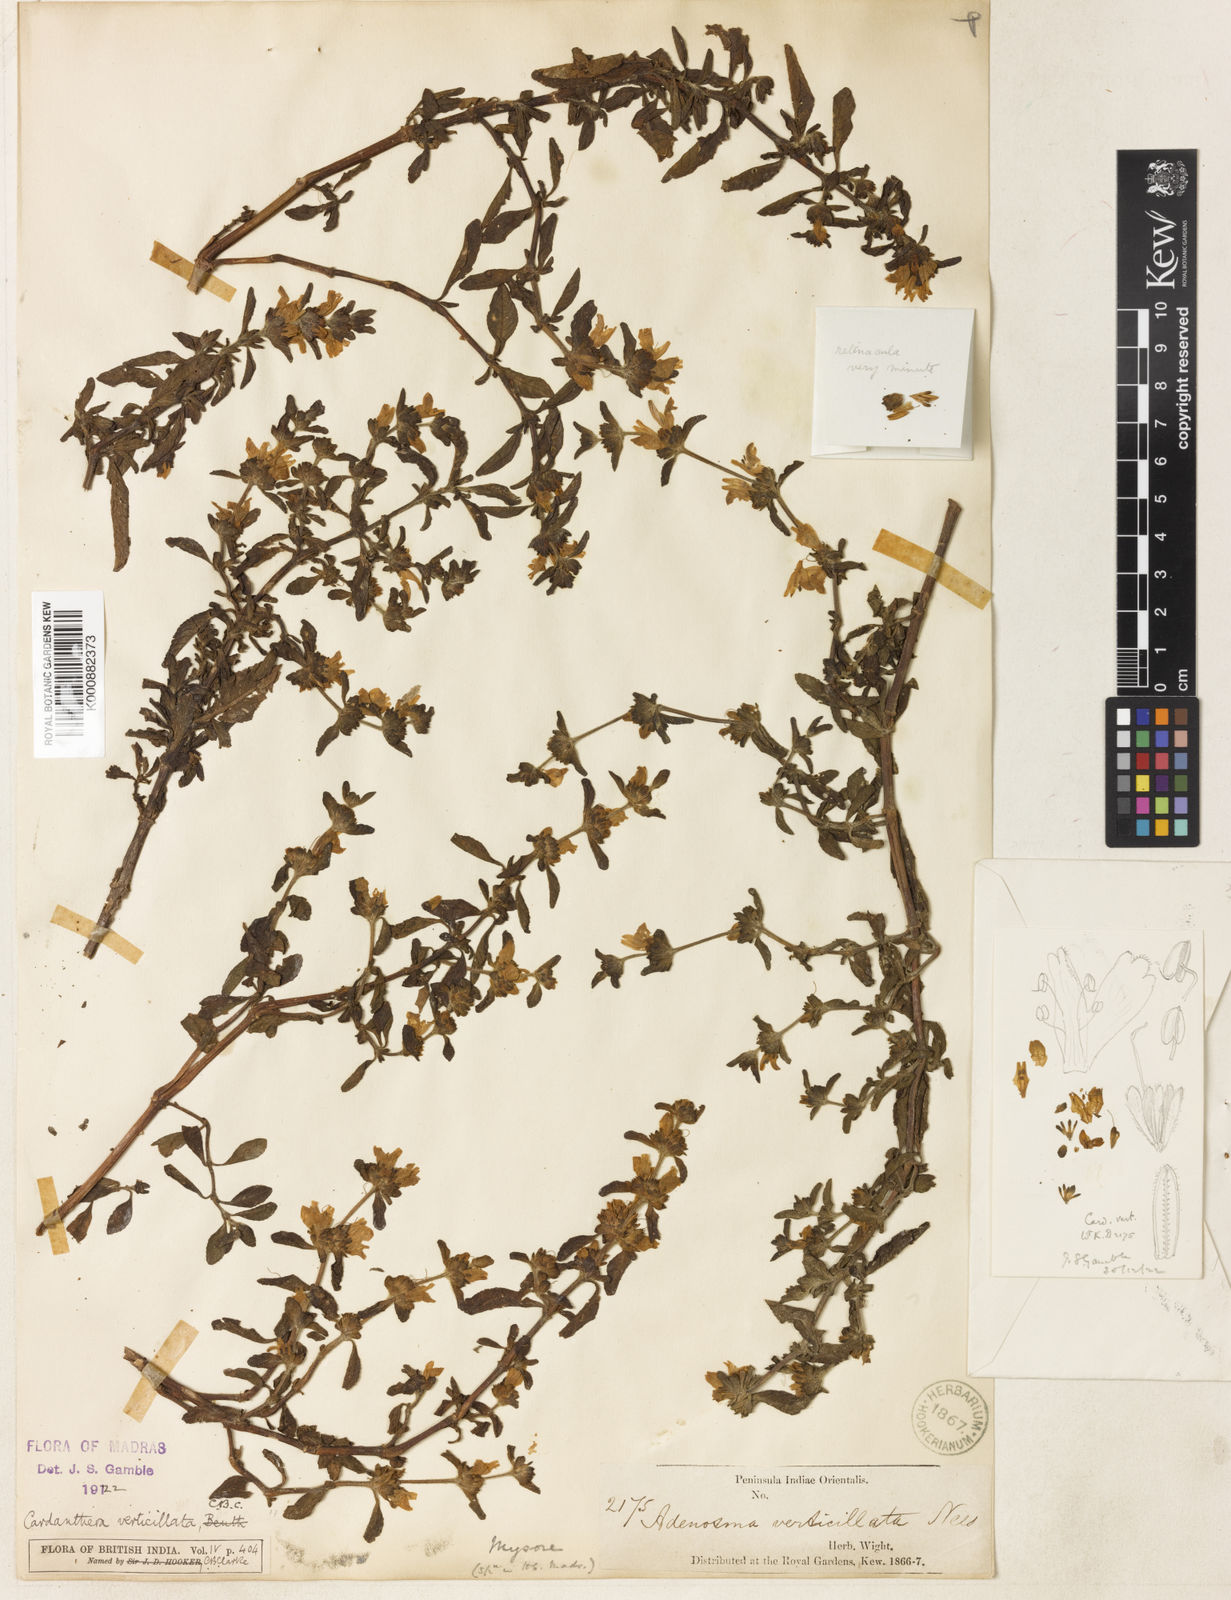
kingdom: Plantae
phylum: Tracheophyta
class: Magnoliopsida
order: Lamiales
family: Acanthaceae
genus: Hygrophila
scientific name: Hygrophila
